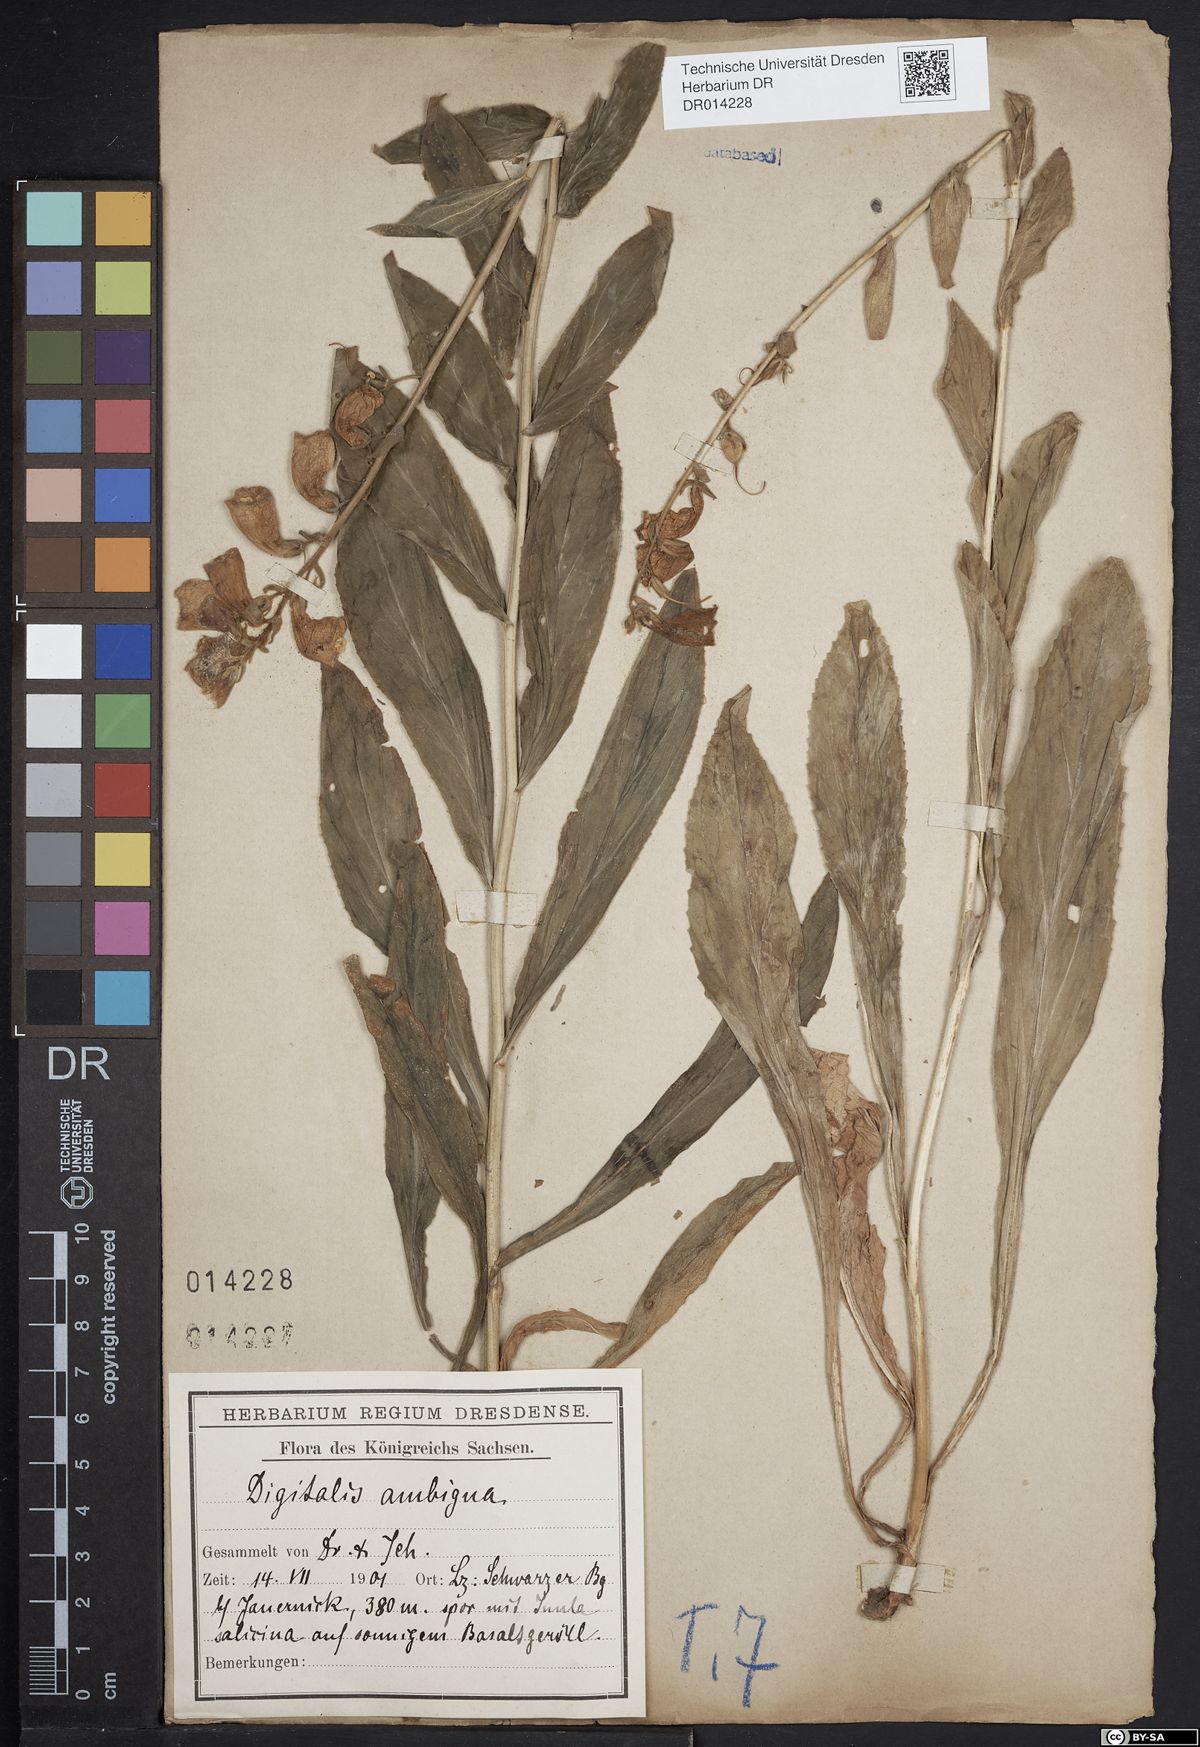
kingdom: Plantae
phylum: Tracheophyta
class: Magnoliopsida
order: Lamiales
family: Plantaginaceae
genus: Digitalis
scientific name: Digitalis grandiflora
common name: Yellow foxglove
